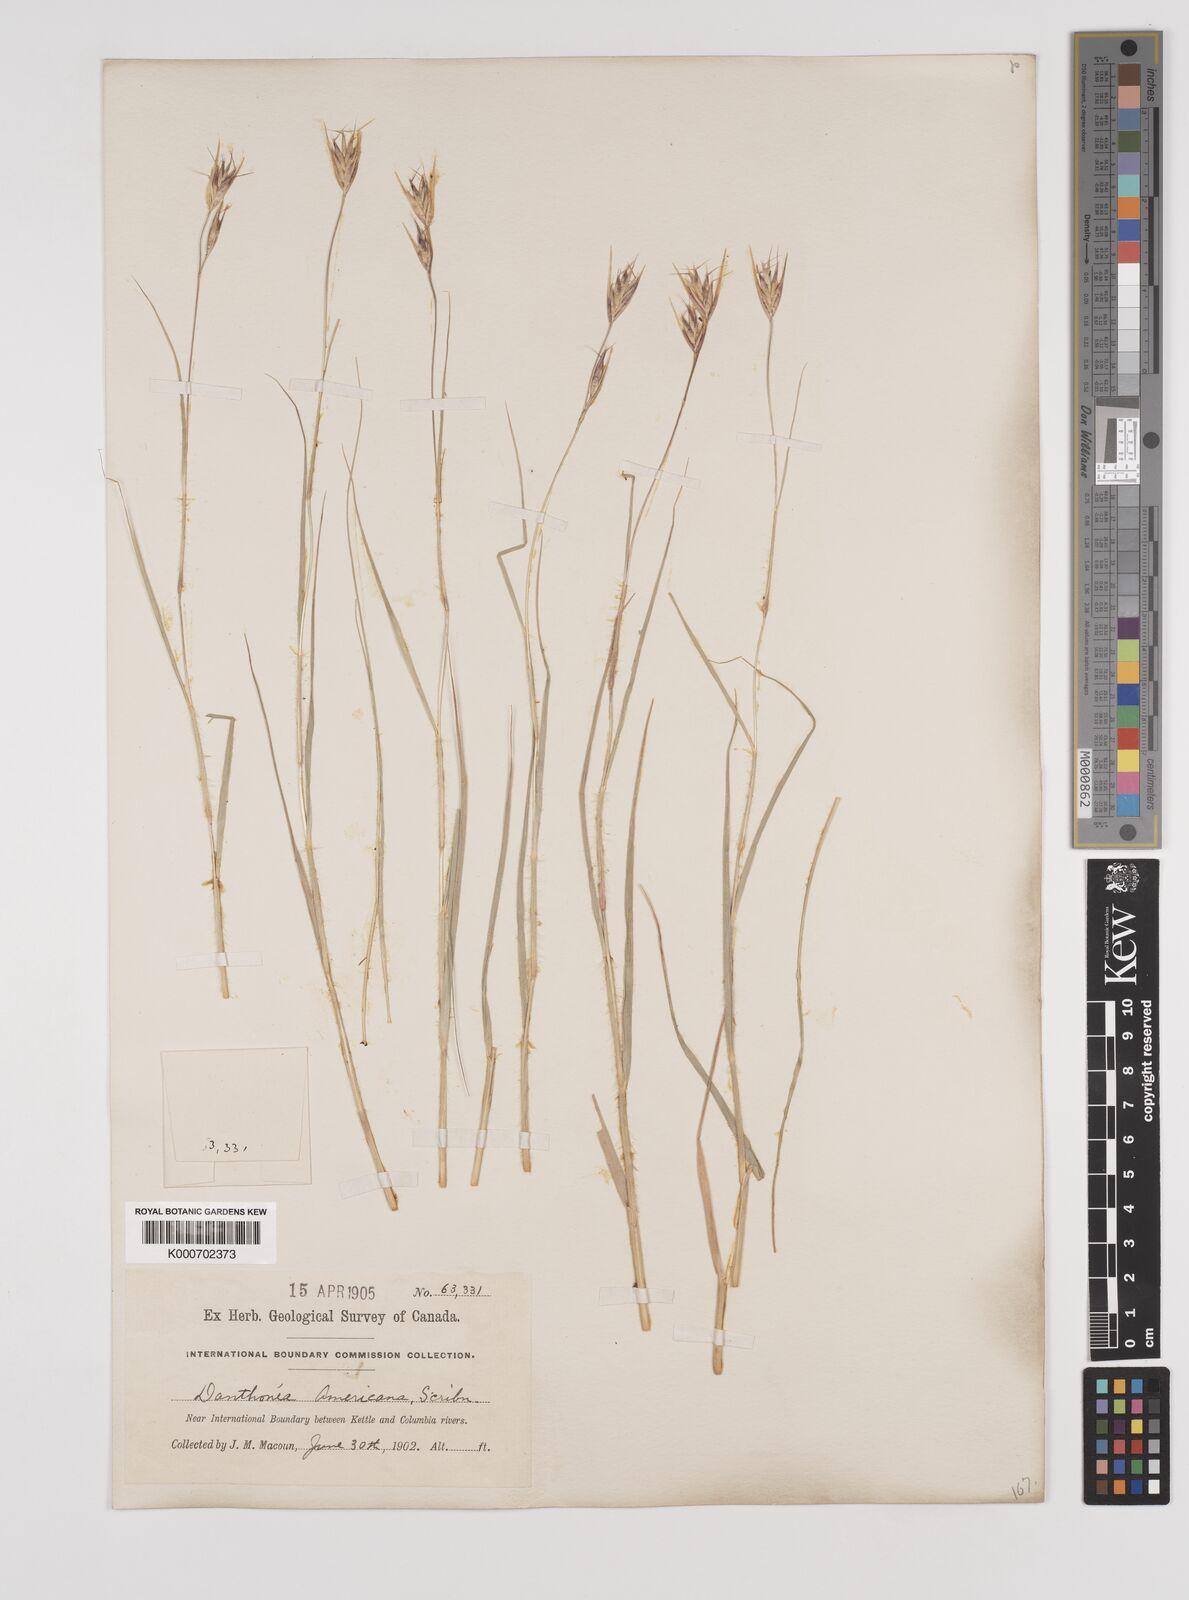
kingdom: Plantae
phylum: Tracheophyta
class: Liliopsida
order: Poales
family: Poaceae
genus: Danthonia
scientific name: Danthonia californica
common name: California oat grass
